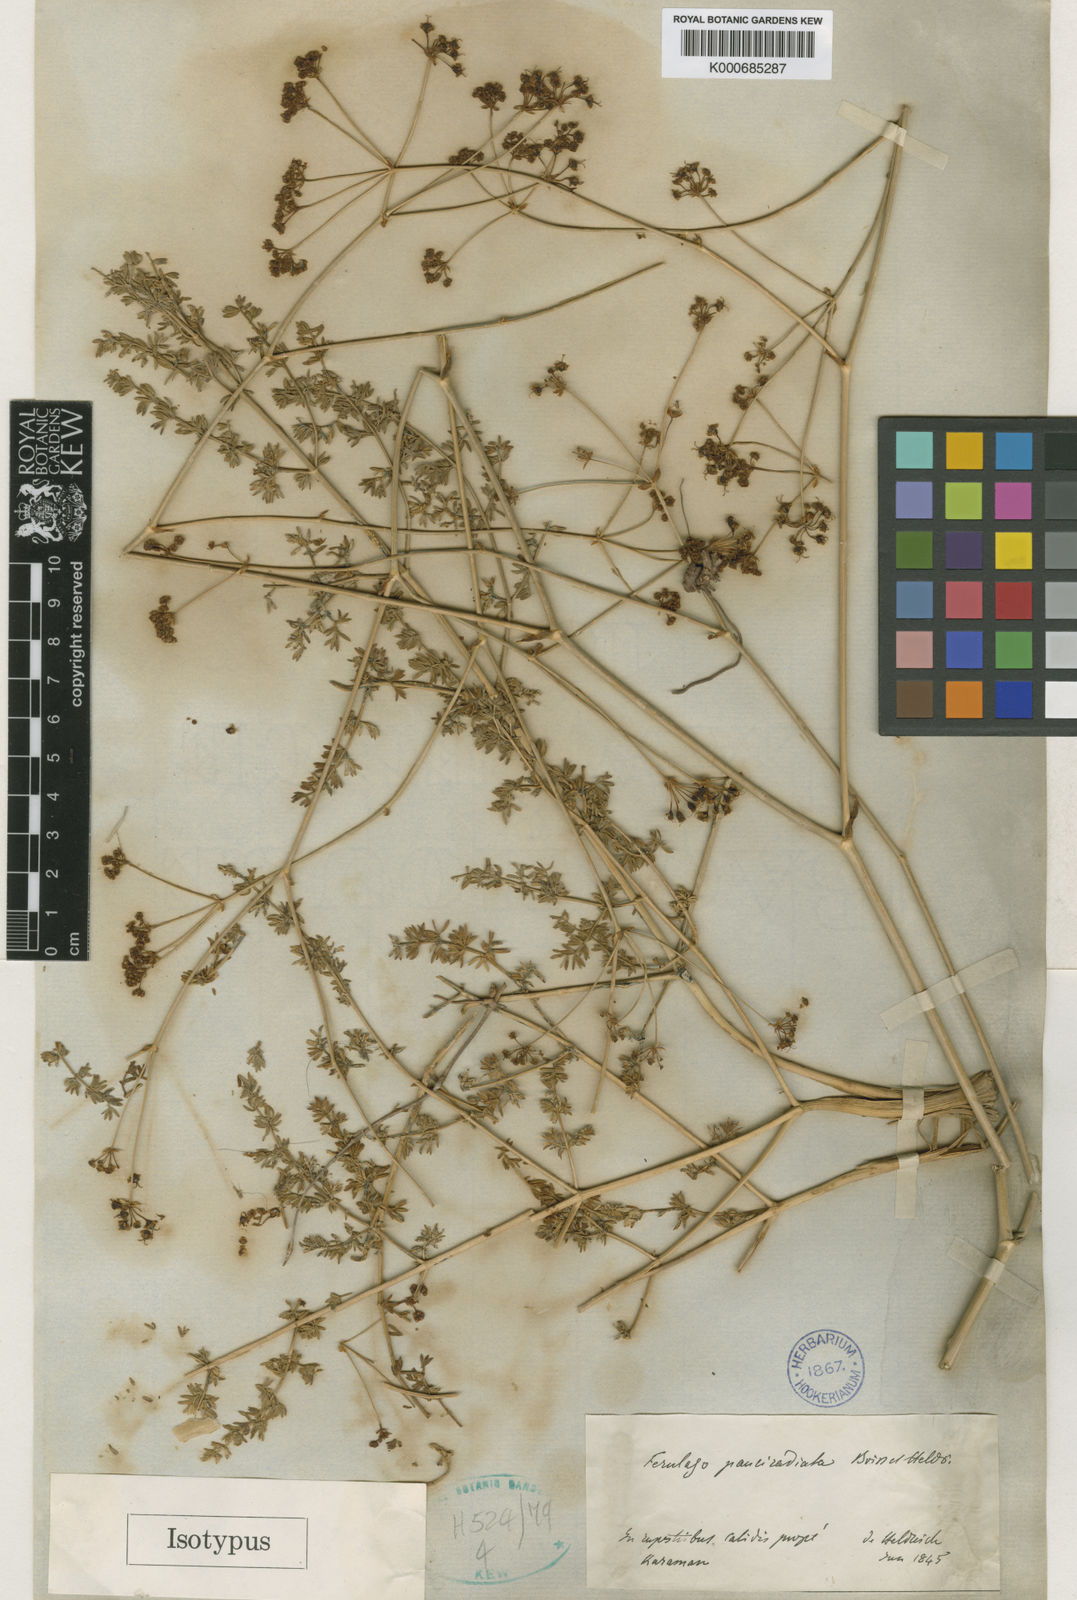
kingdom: Plantae
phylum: Tracheophyta
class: Magnoliopsida
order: Apiales
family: Apiaceae
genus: Ferulago
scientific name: Ferulago armena
